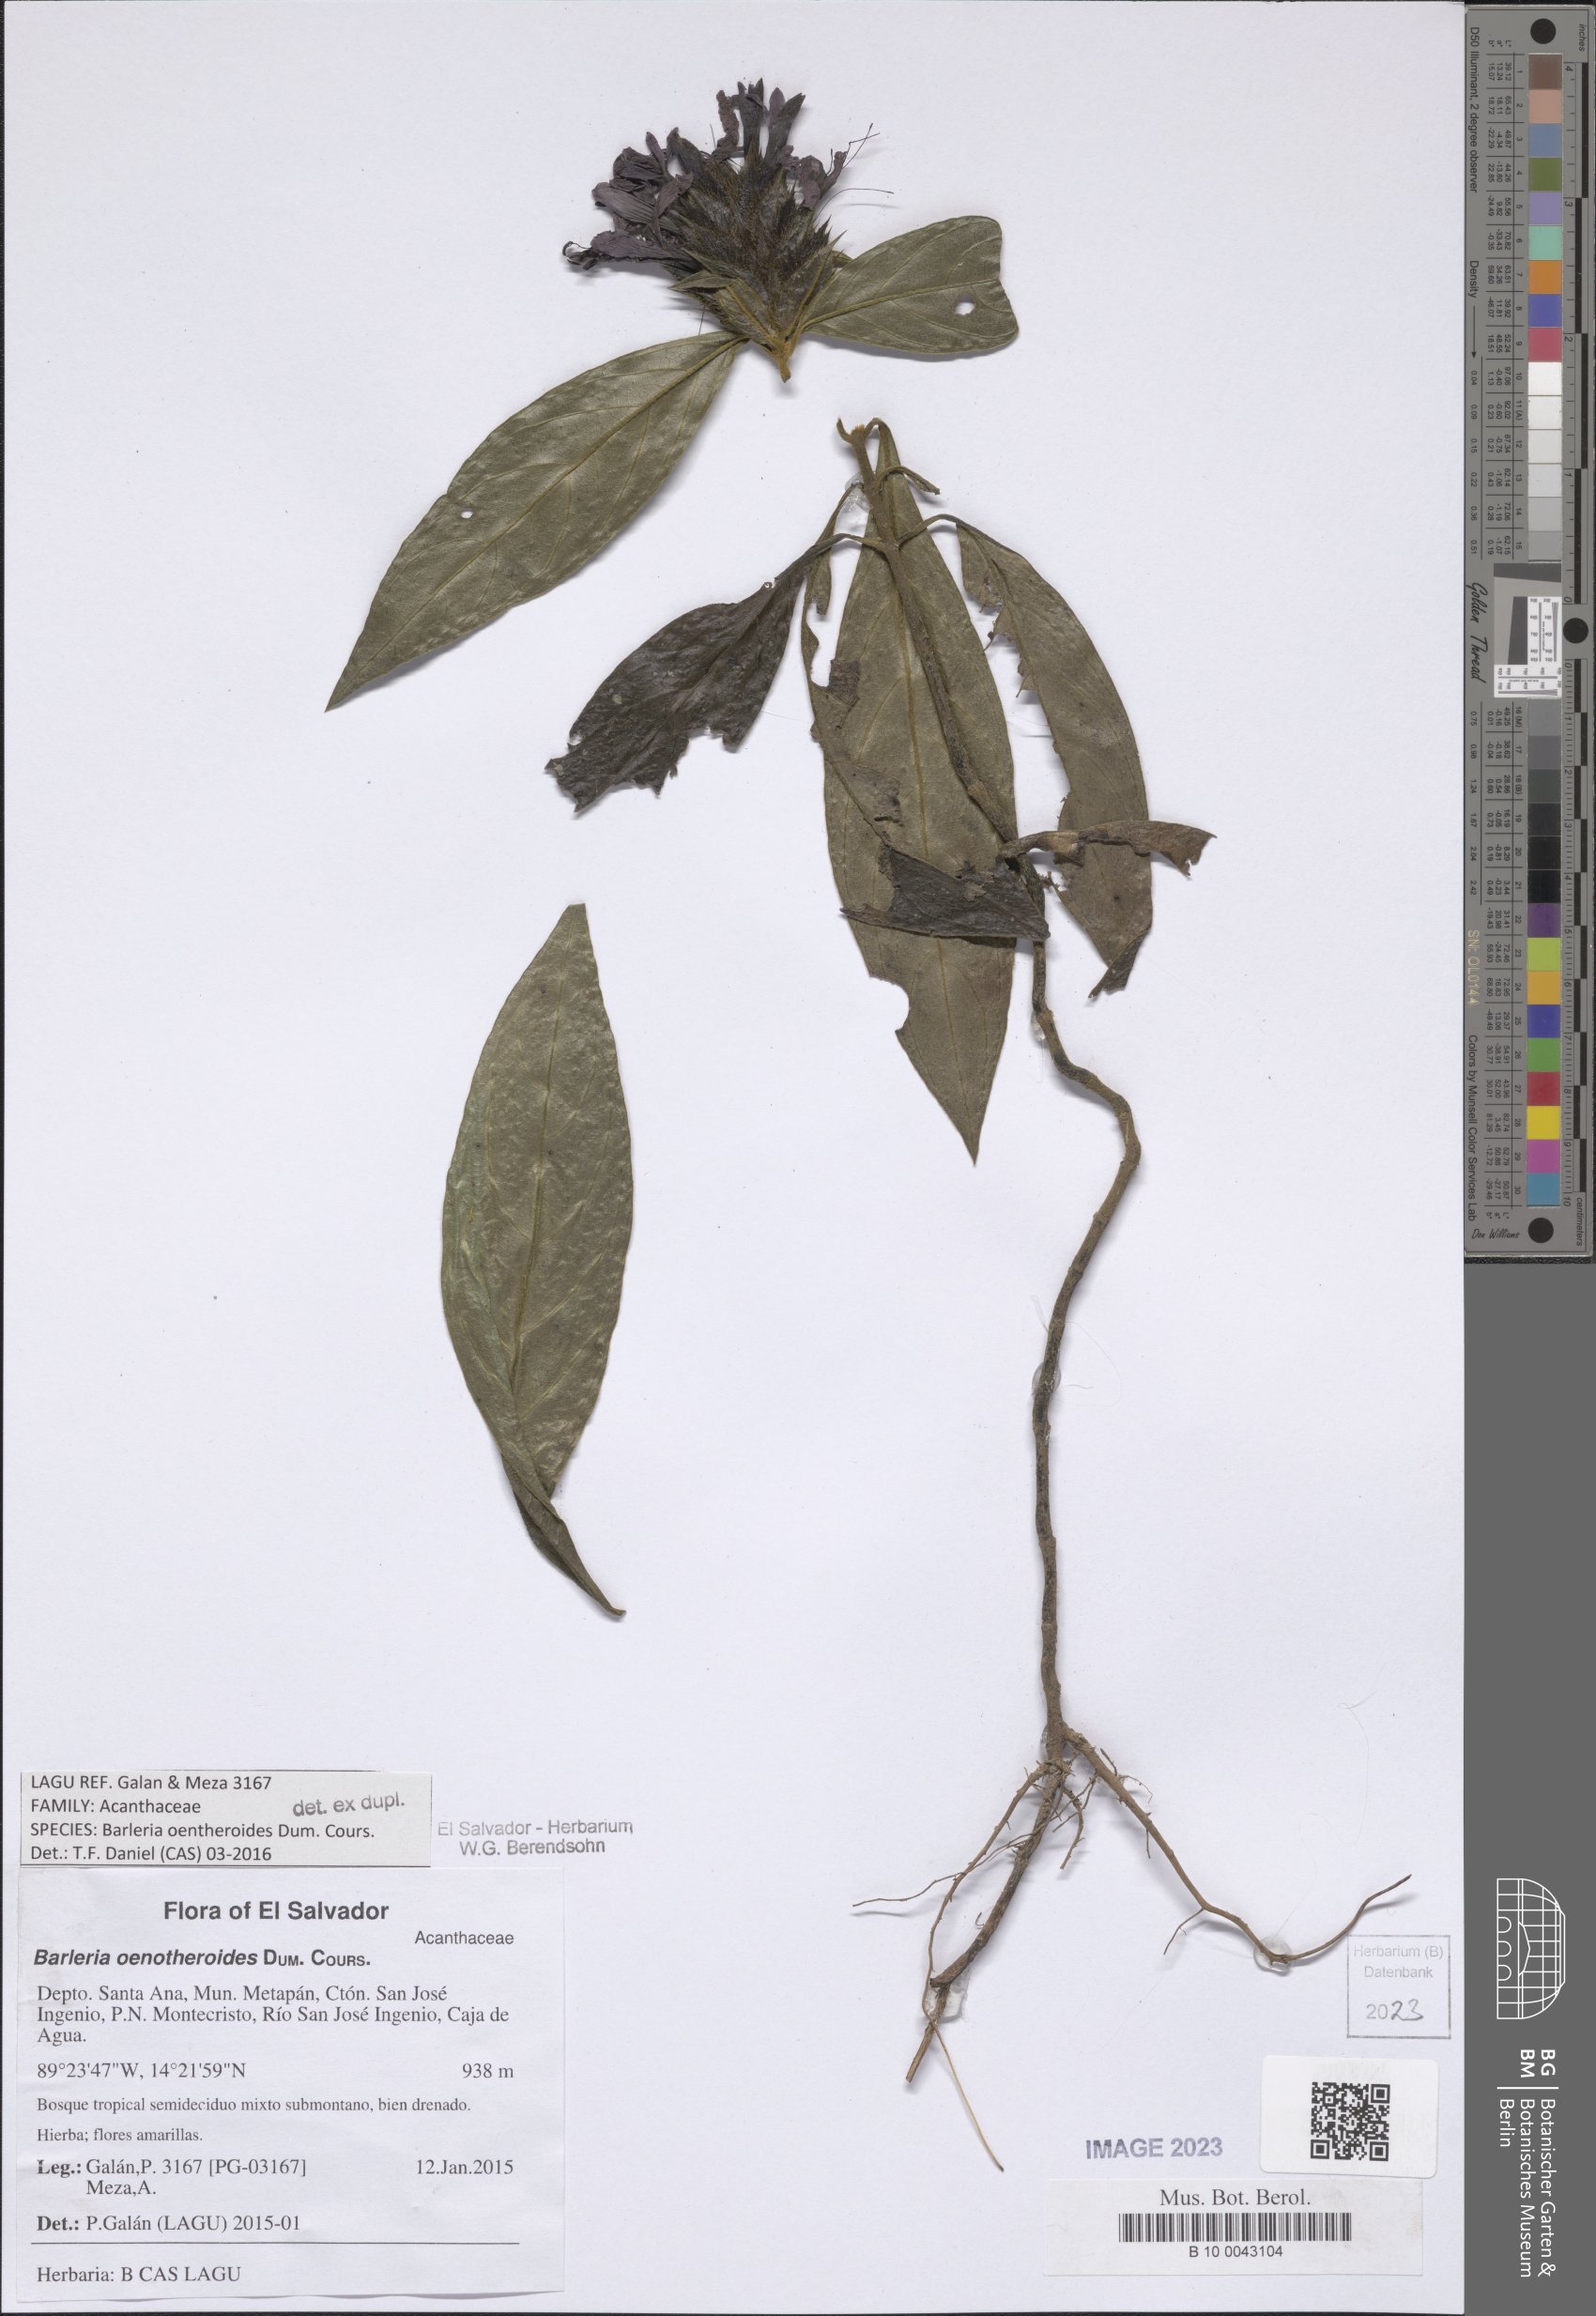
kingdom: Plantae
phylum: Tracheophyta
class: Magnoliopsida
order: Lamiales
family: Acanthaceae
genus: Barleria
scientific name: Barleria oenotheroides
